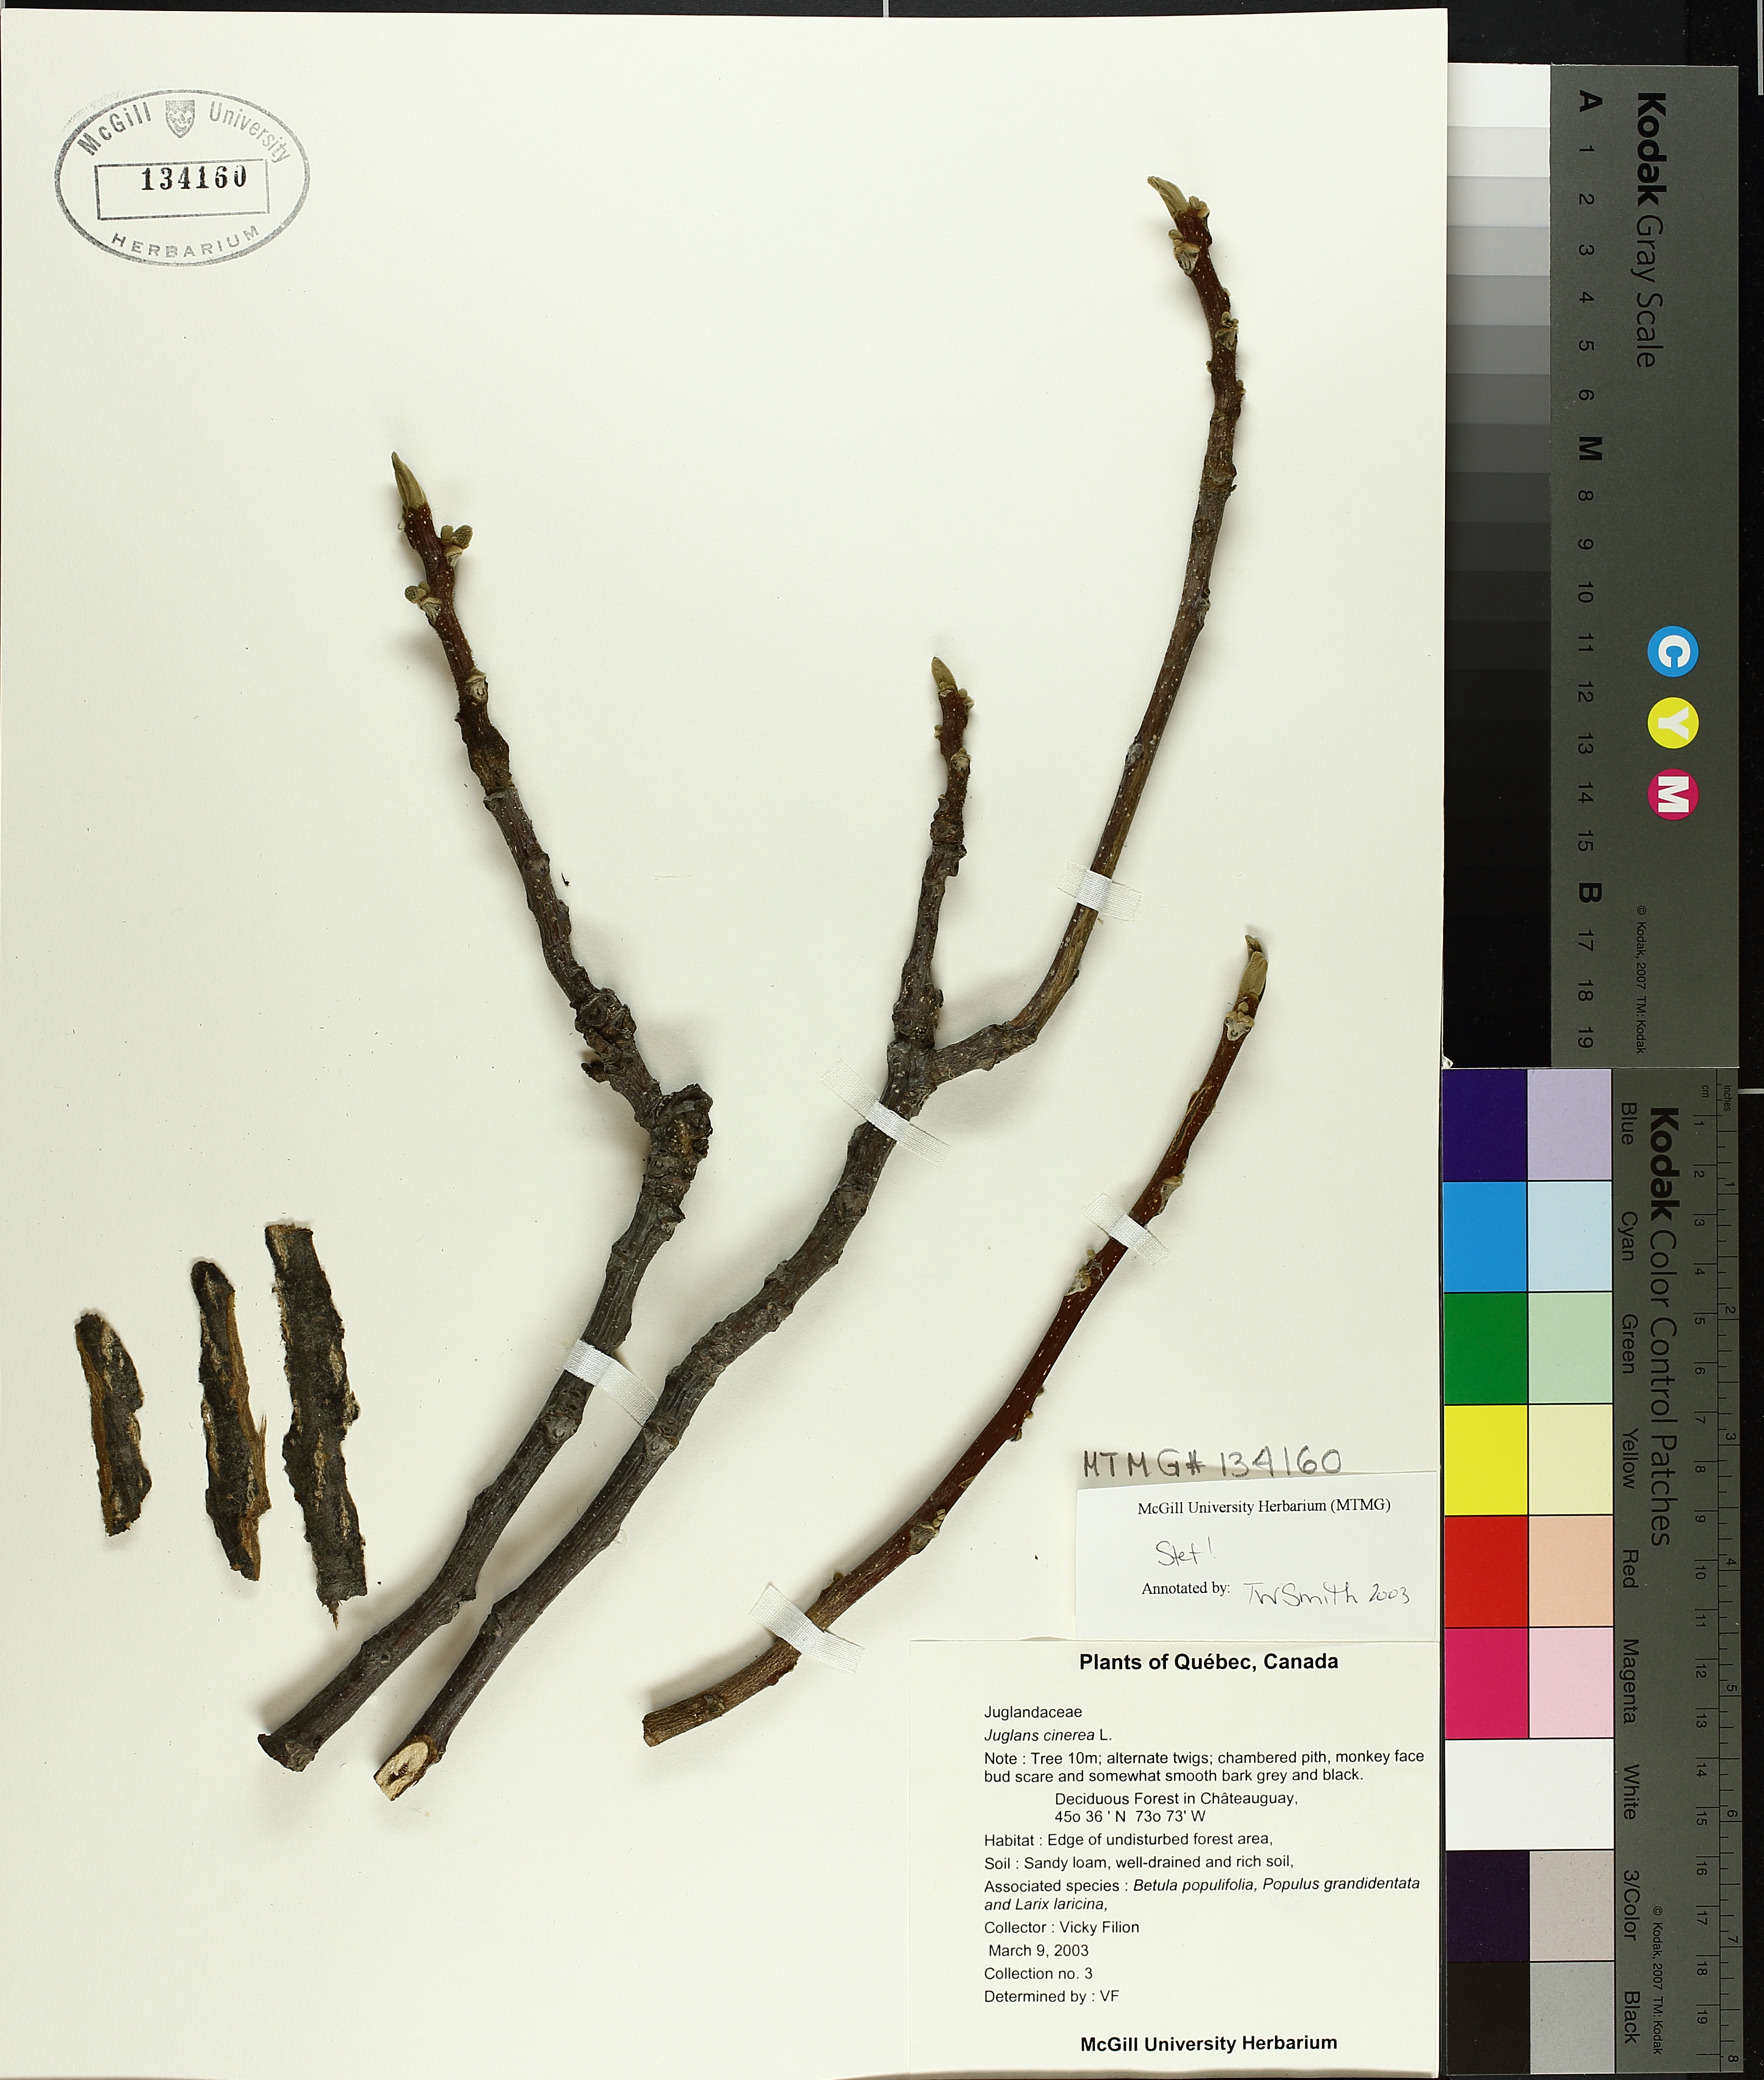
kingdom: Plantae
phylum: Tracheophyta
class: Magnoliopsida
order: Fagales
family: Juglandaceae
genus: Juglans
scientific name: Juglans cinerea
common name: Butternut
